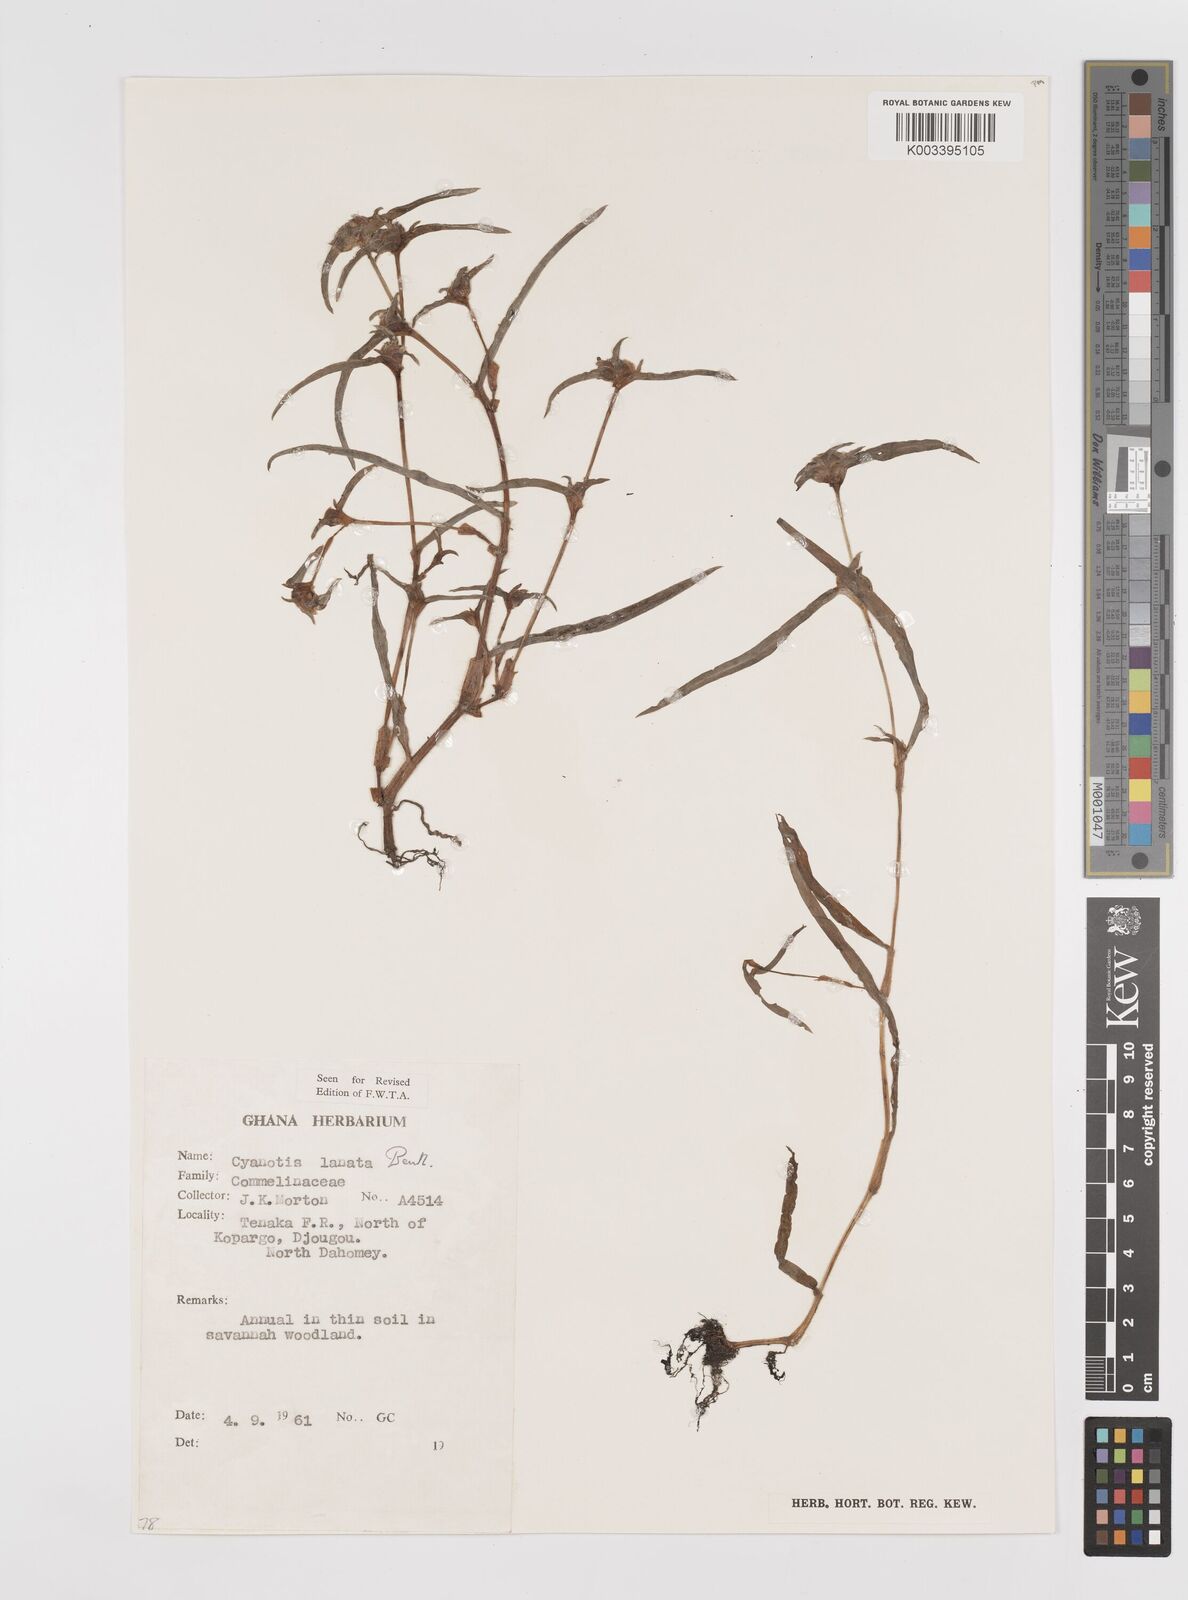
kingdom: Plantae
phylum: Tracheophyta
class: Liliopsida
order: Commelinales
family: Commelinaceae
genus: Cyanotis
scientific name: Cyanotis lanata
